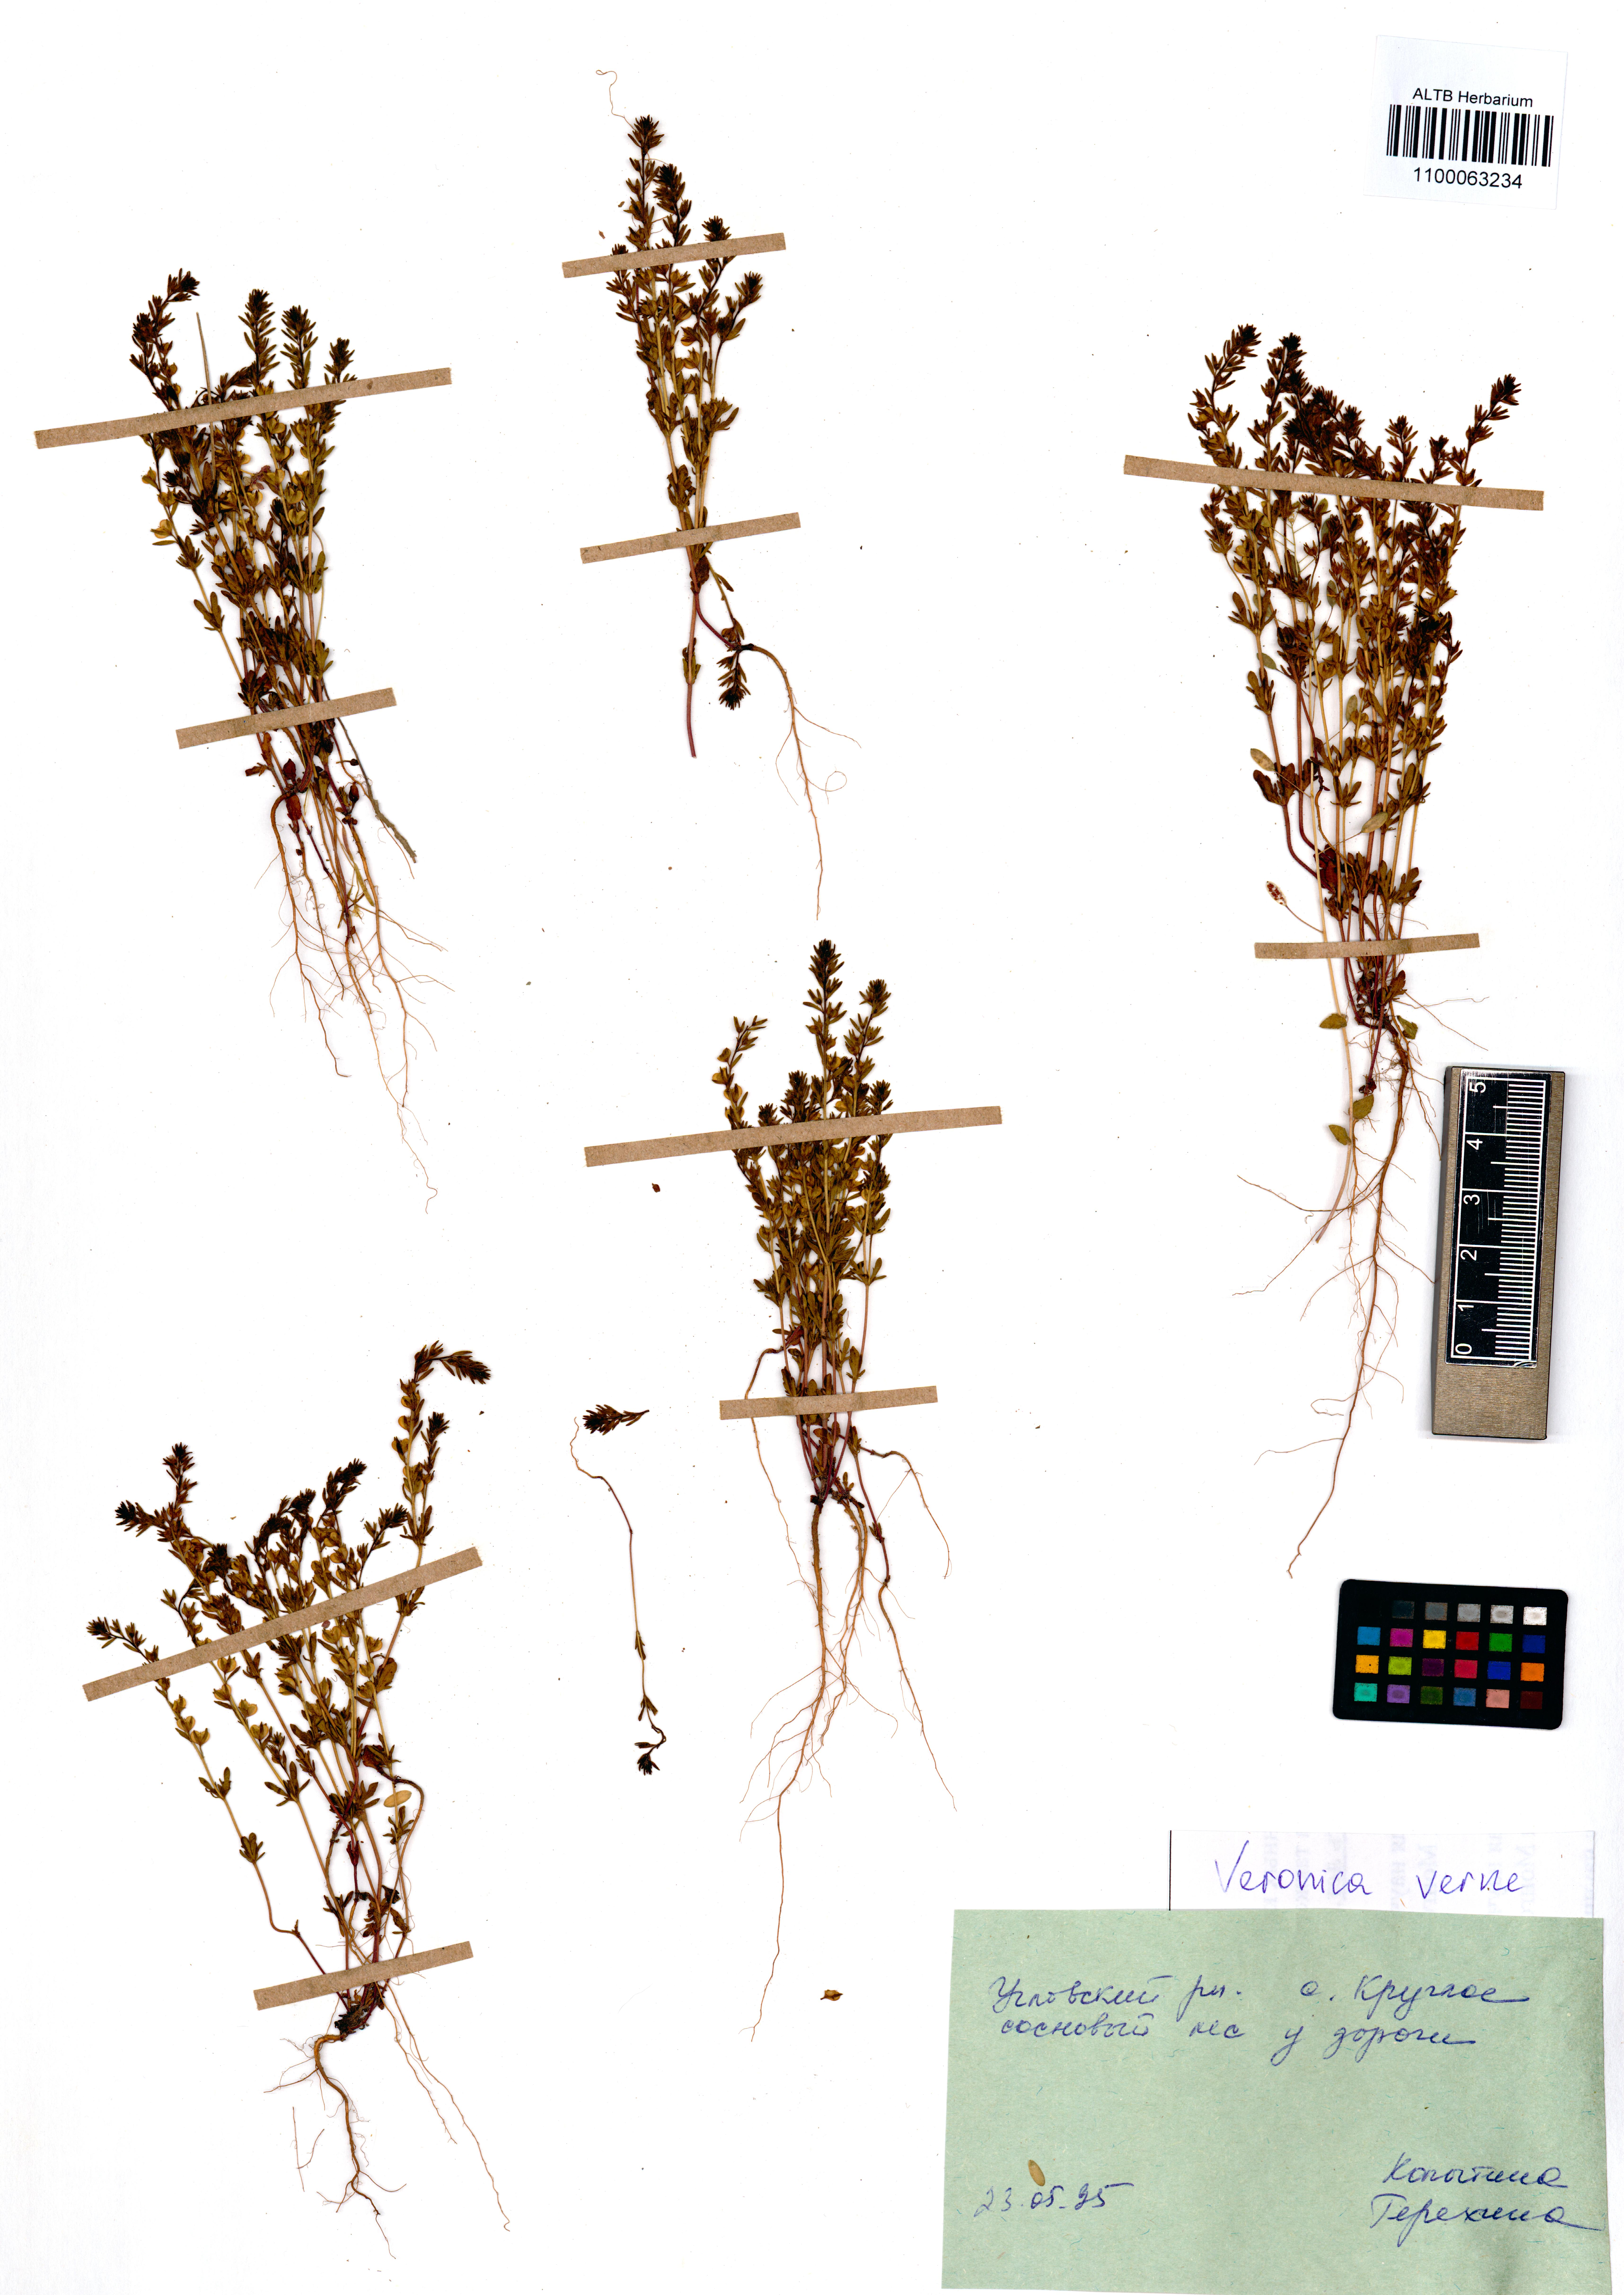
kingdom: Plantae
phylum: Tracheophyta
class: Magnoliopsida
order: Lamiales
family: Plantaginaceae
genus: Veronica
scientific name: Veronica verna
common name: Spring speedwell
